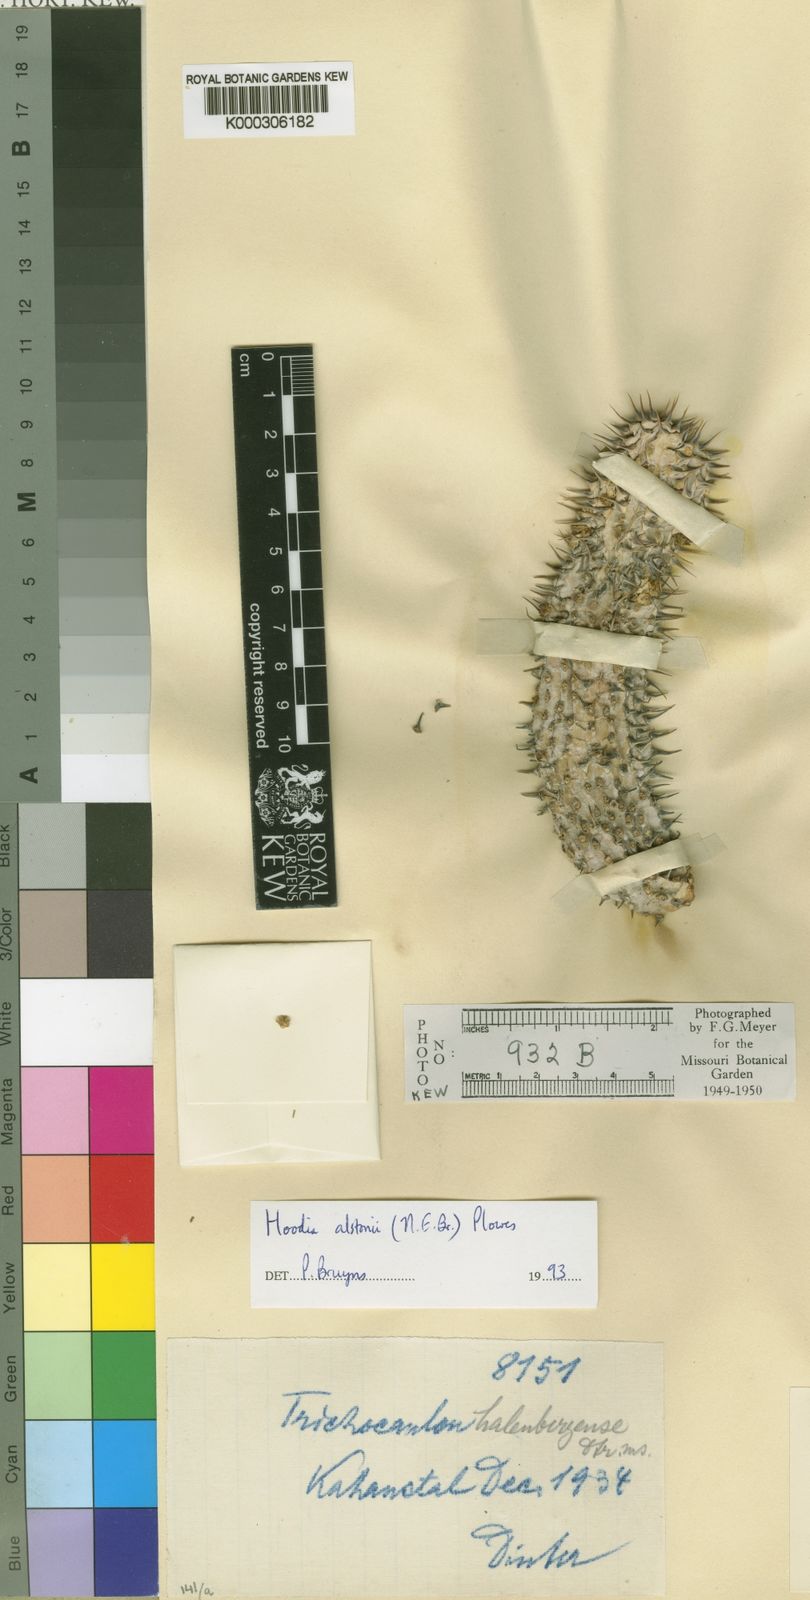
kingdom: Plantae
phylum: Tracheophyta
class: Magnoliopsida
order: Gentianales
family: Apocynaceae
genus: Ceropegia
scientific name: Ceropegia alstonii
